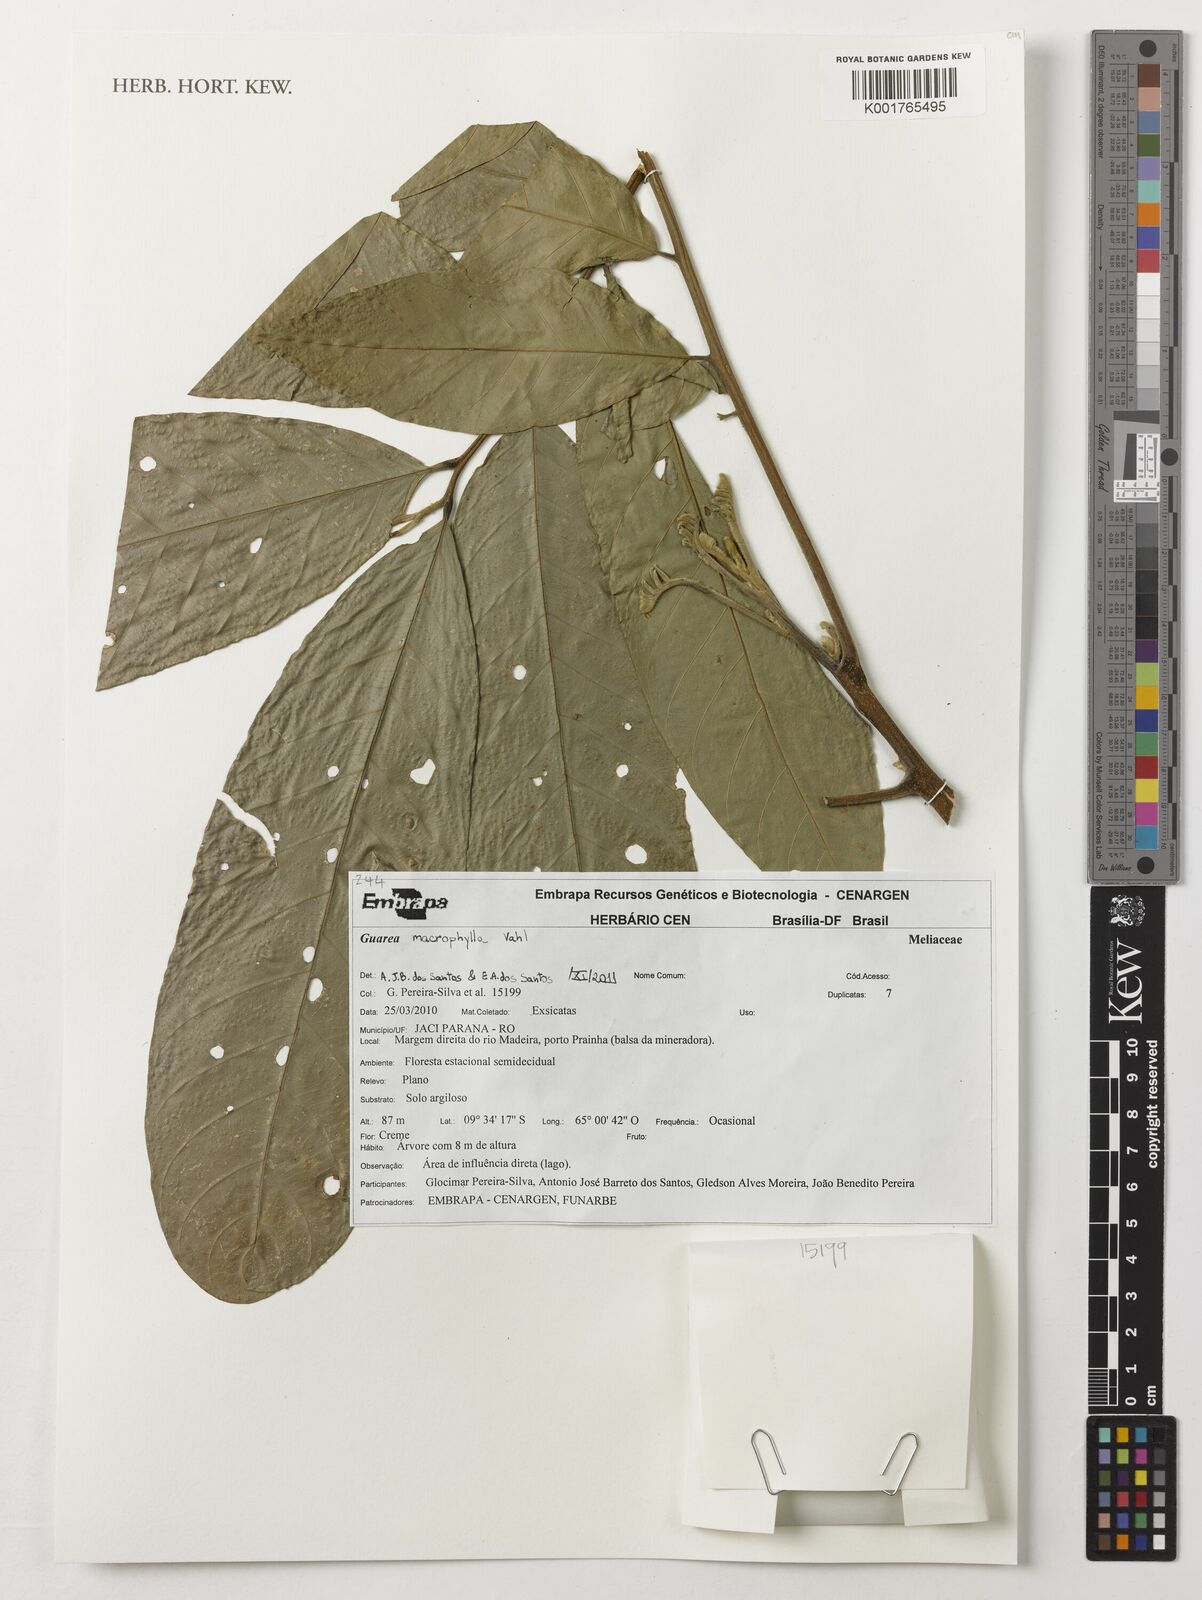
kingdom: Plantae
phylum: Tracheophyta
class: Magnoliopsida
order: Sapindales
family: Meliaceae
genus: Guarea
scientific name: Guarea macrophylla
